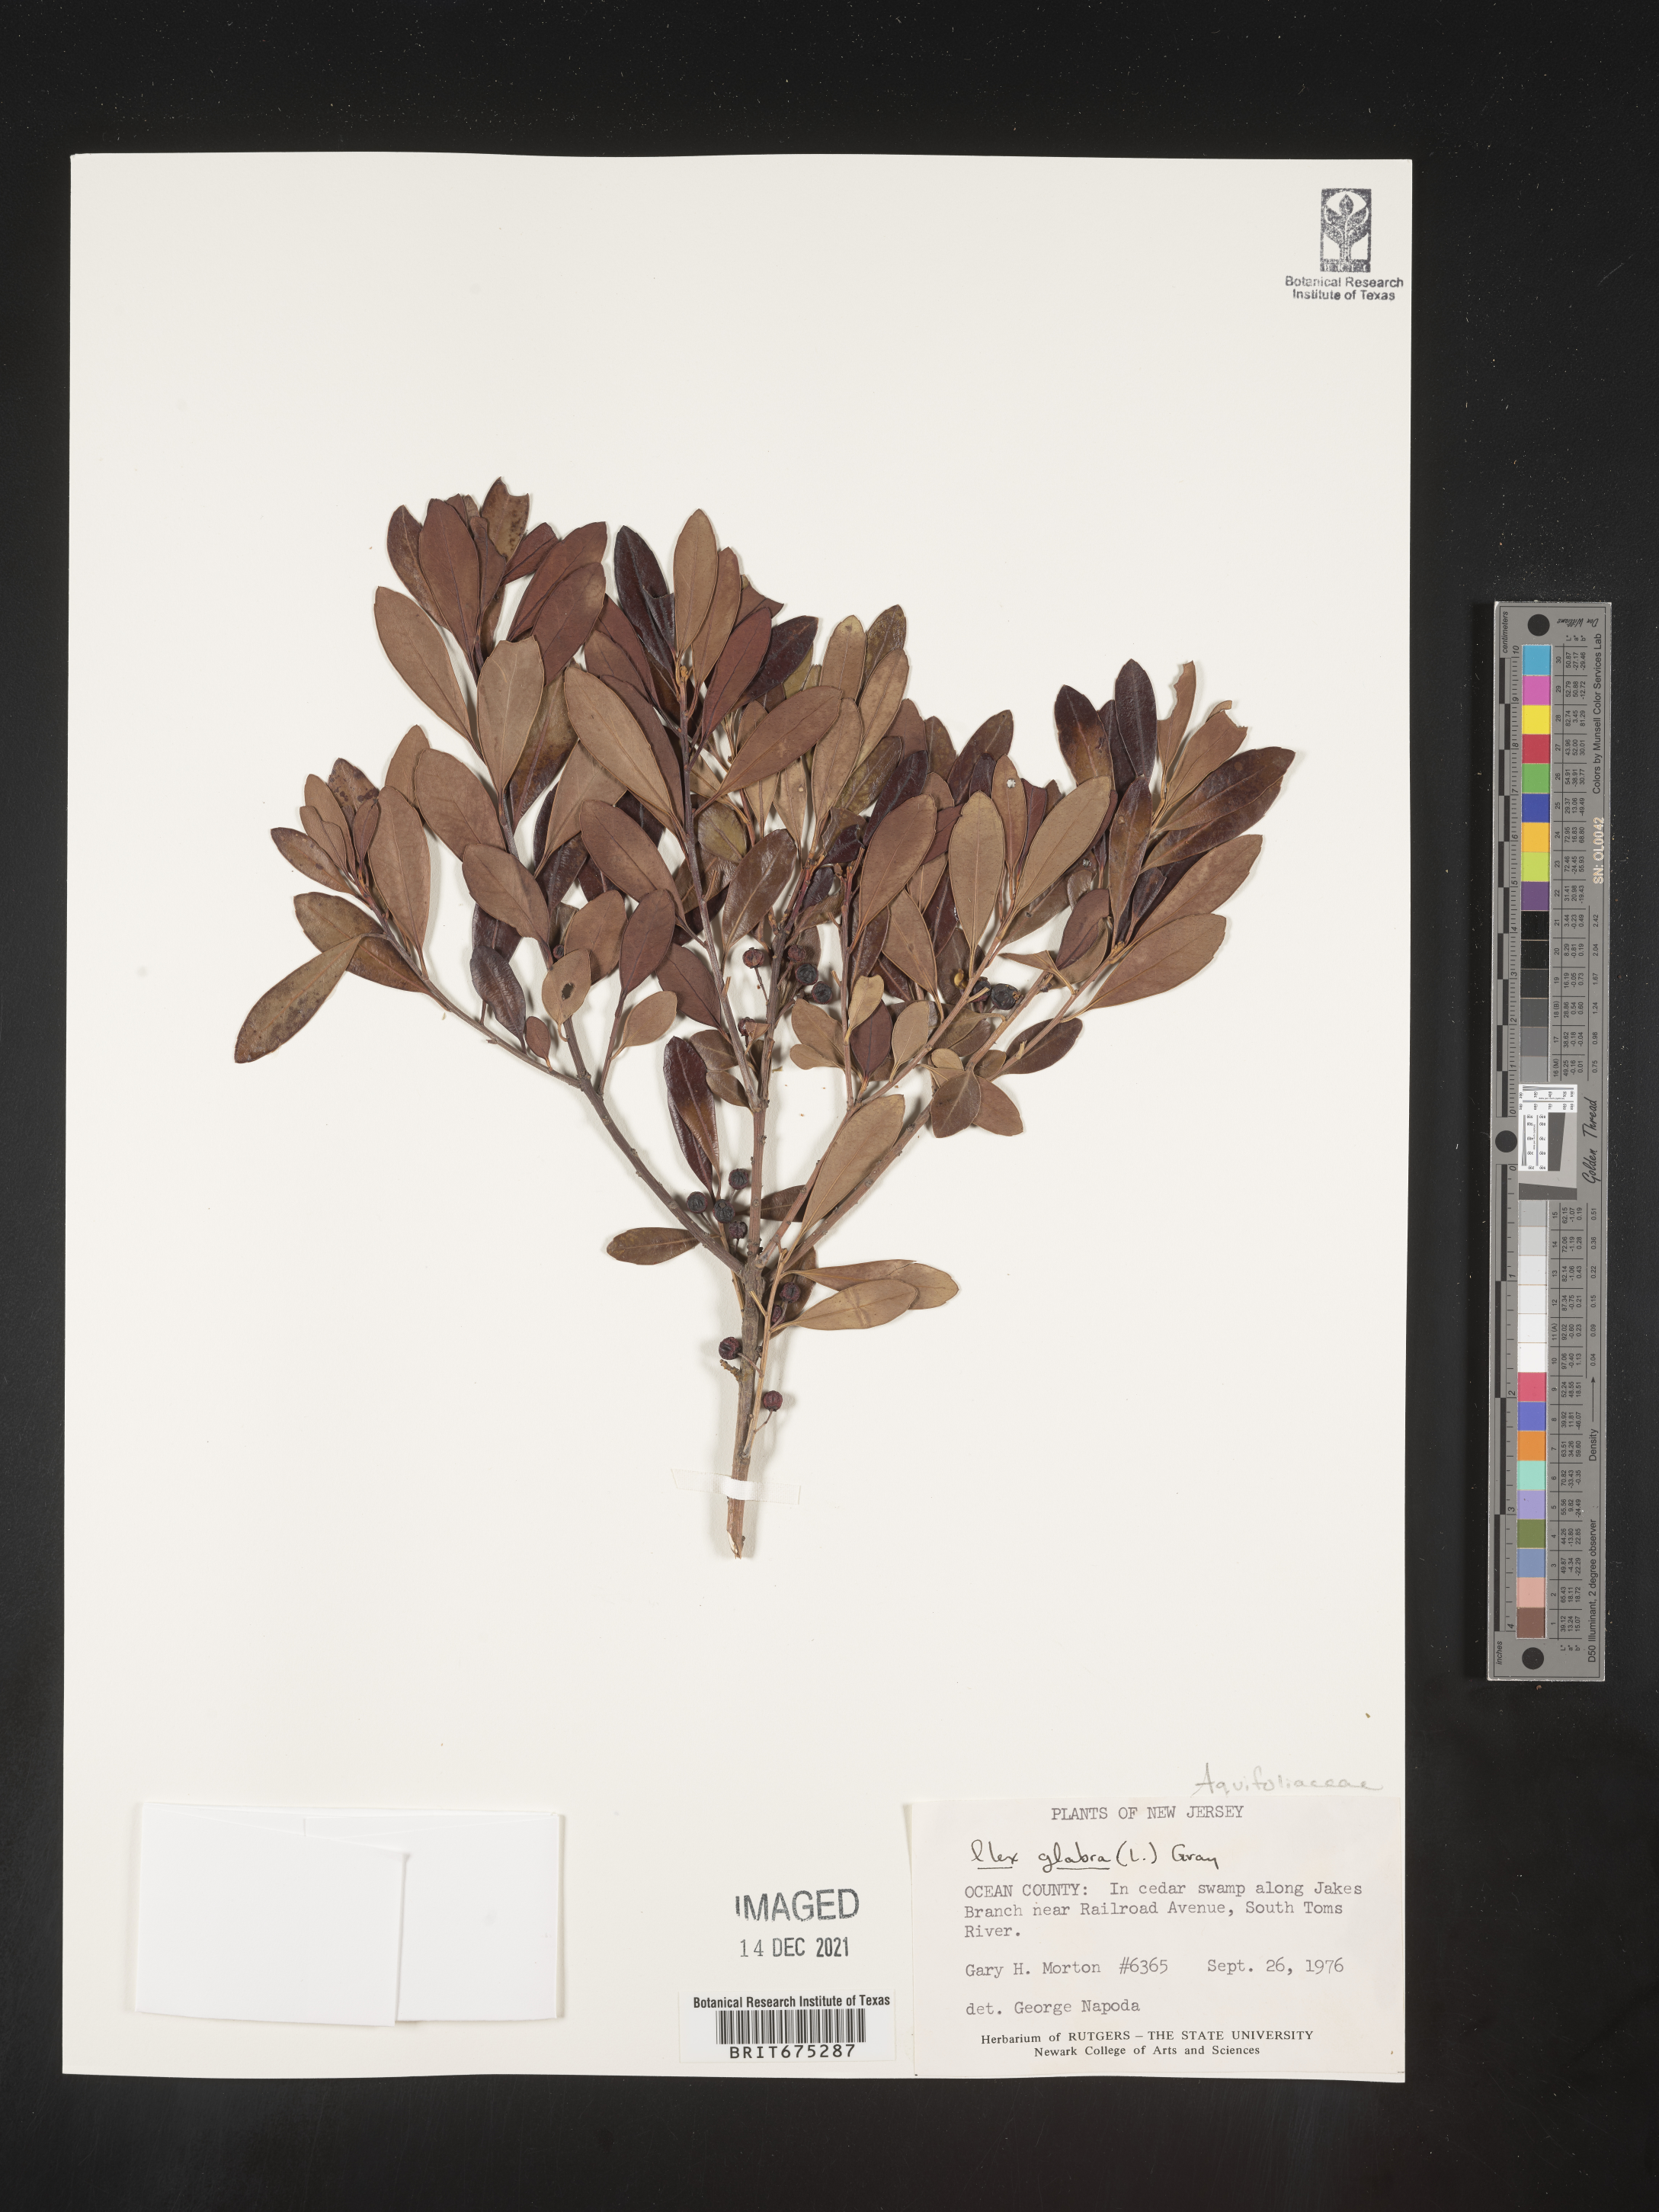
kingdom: Plantae
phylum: Tracheophyta
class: Magnoliopsida
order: Aquifoliales
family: Aquifoliaceae
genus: Ilex
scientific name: Ilex glabra
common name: Bitter gallberry
